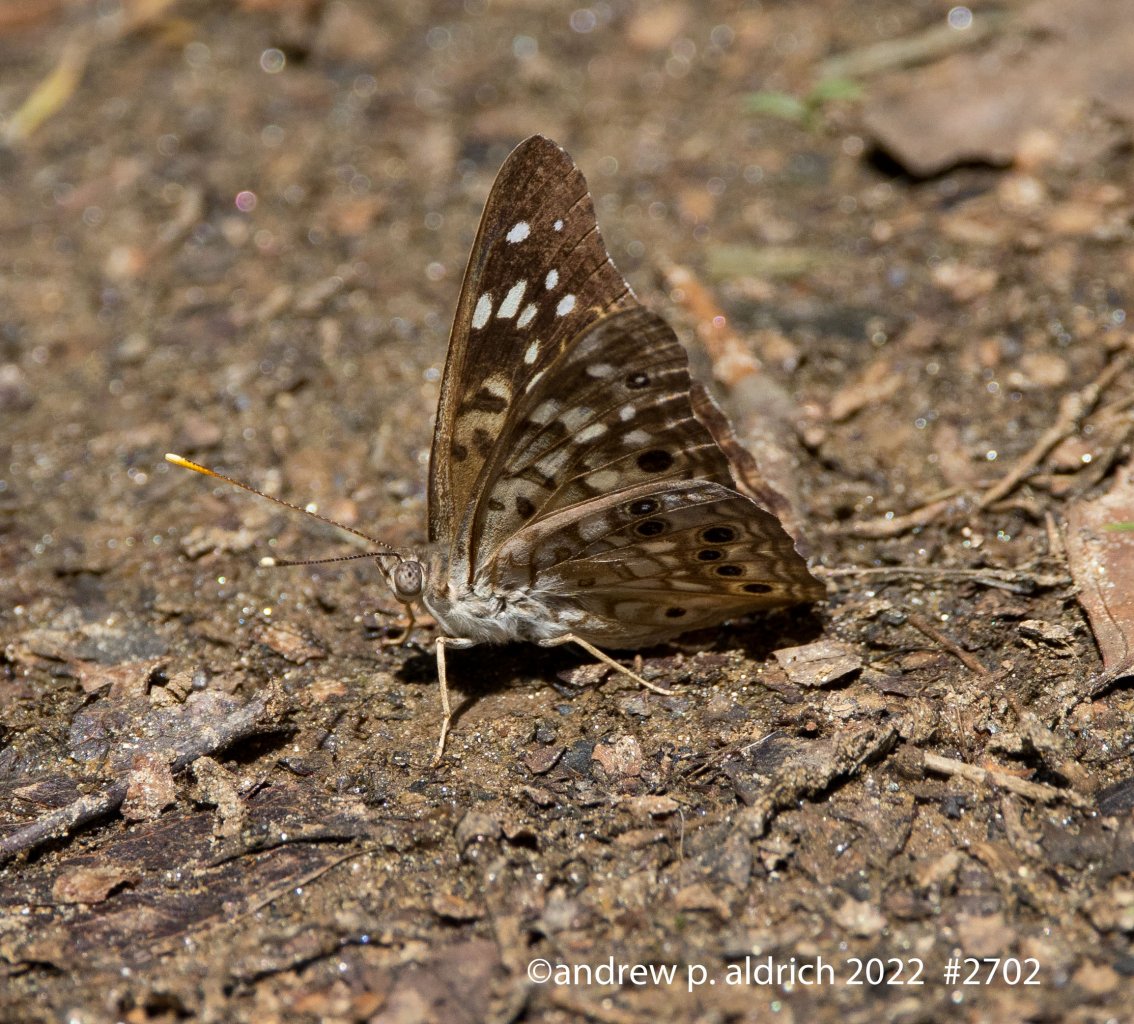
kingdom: Animalia
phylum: Arthropoda
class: Insecta
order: Lepidoptera
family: Nymphalidae
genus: Asterocampa
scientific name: Asterocampa celtis
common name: Hackberry Emperor
